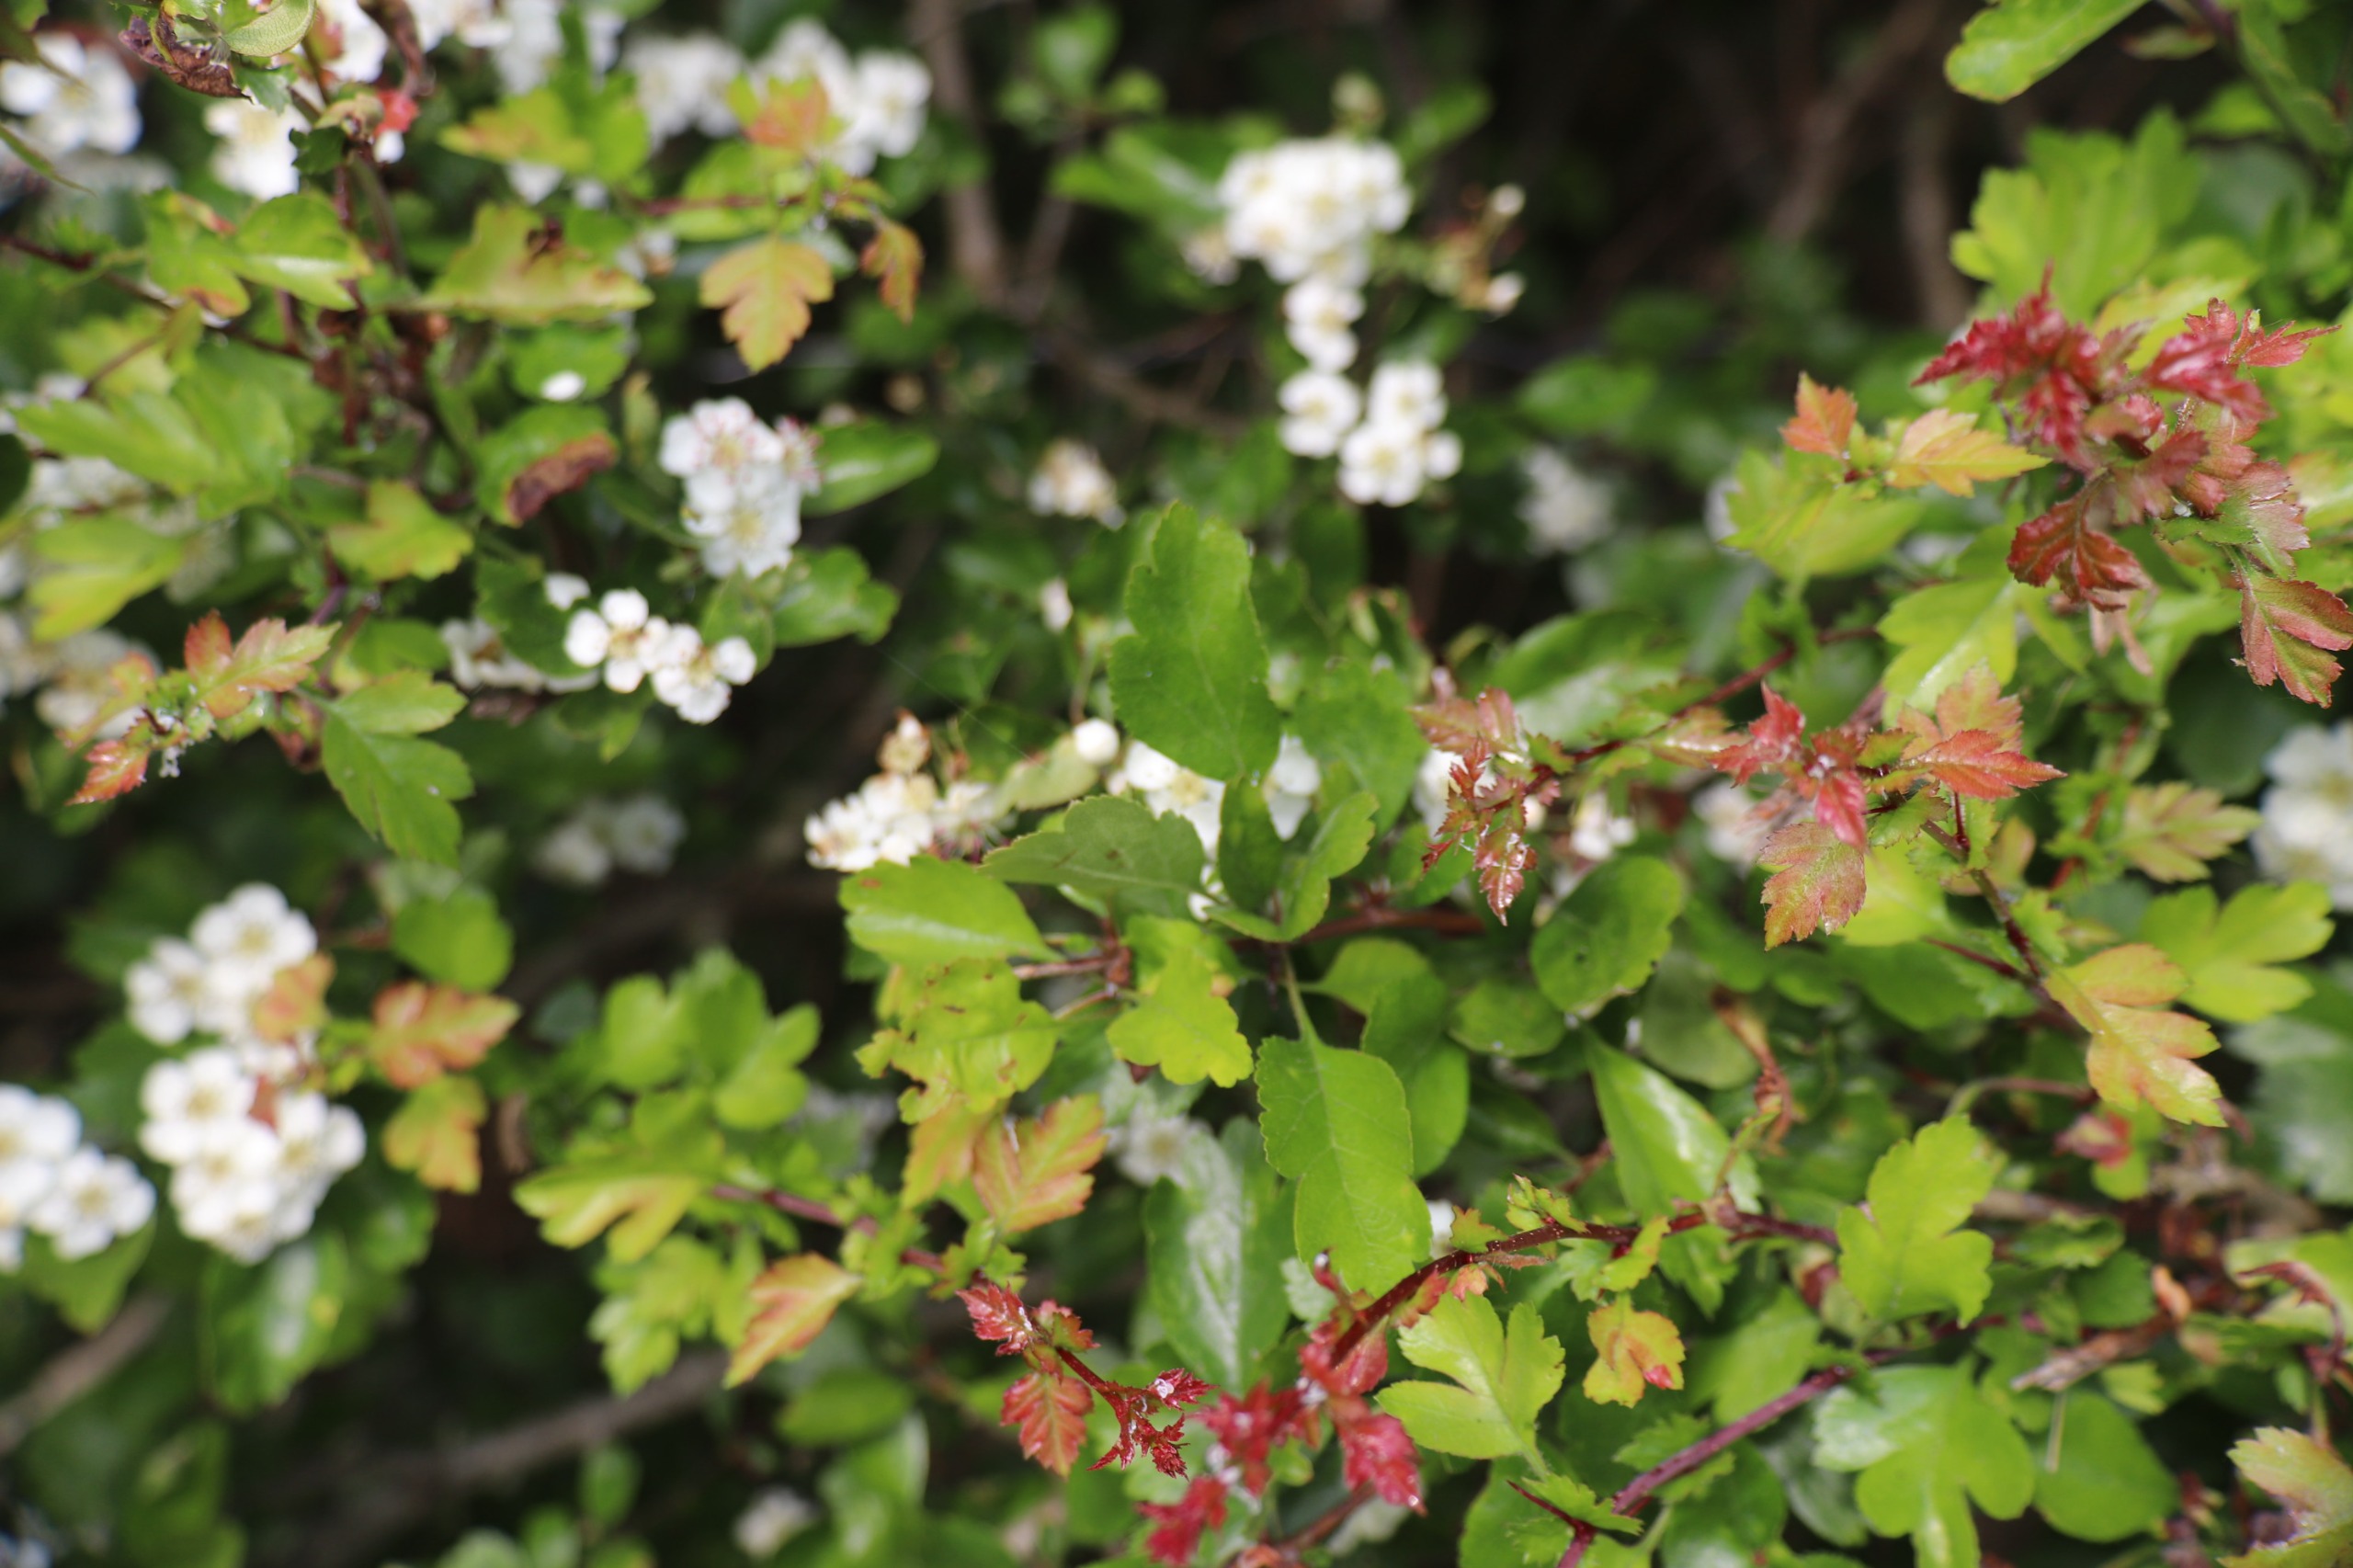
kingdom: Plantae
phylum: Tracheophyta
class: Magnoliopsida
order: Rosales
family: Rosaceae
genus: Crataegus
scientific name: Crataegus laevigata
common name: Almindelig hvidtjørn
